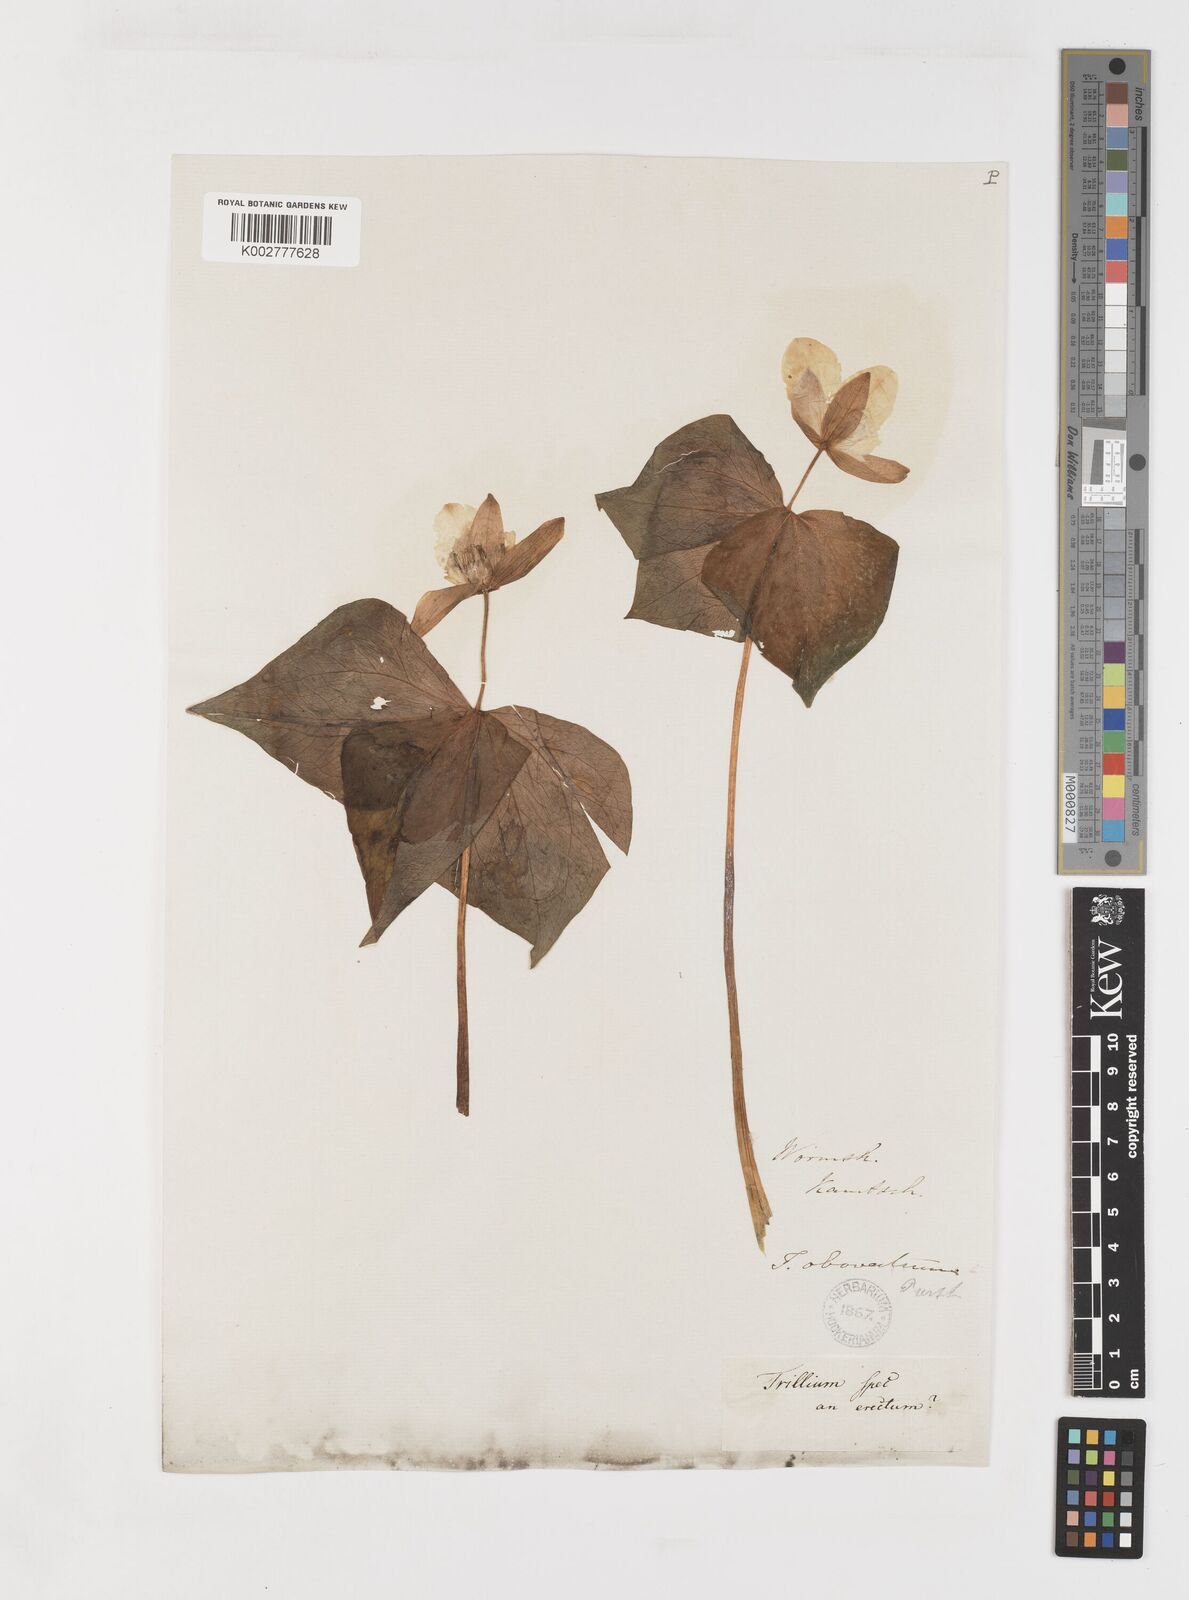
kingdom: Plantae
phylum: Tracheophyta
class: Liliopsida
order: Liliales
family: Melanthiaceae
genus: Trillium
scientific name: Trillium erectum
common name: Purple trillium
